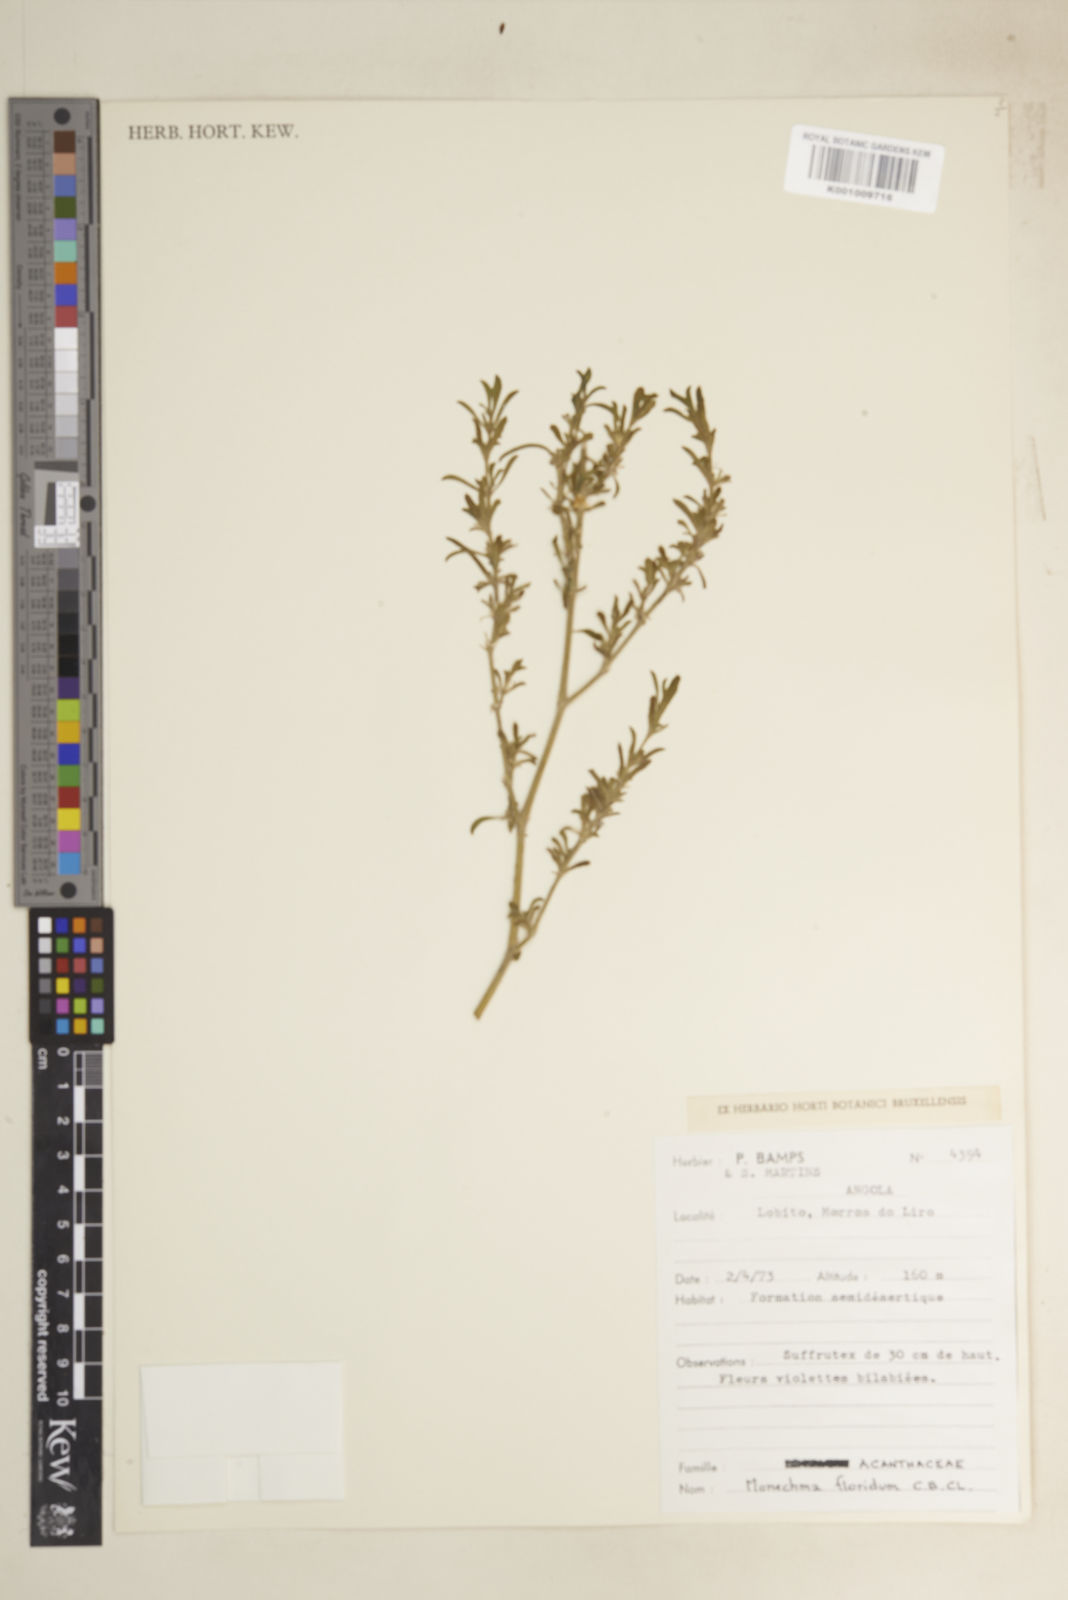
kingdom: Plantae
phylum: Tracheophyta
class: Magnoliopsida
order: Lamiales
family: Acanthaceae
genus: Pogonospermum
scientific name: Pogonospermum
